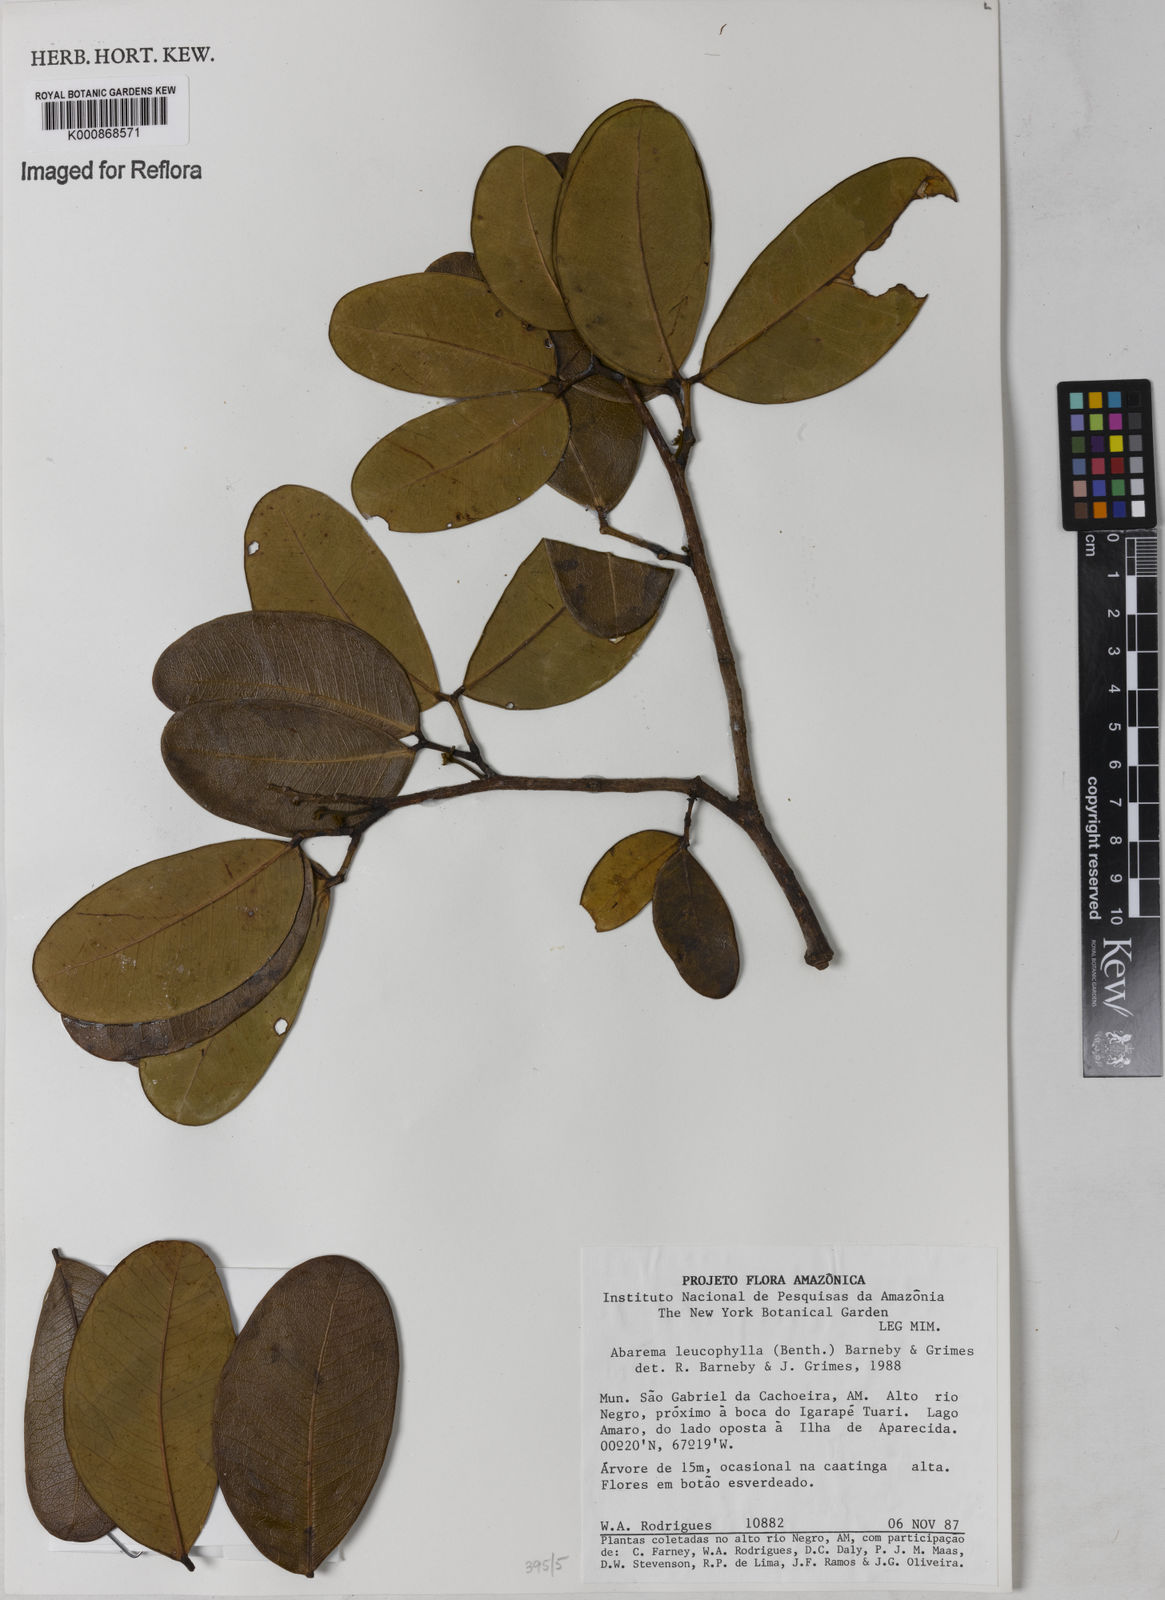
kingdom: Plantae
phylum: Tracheophyta
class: Magnoliopsida
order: Fabales
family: Fabaceae
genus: Jupunba
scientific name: Jupunba leucophylla
